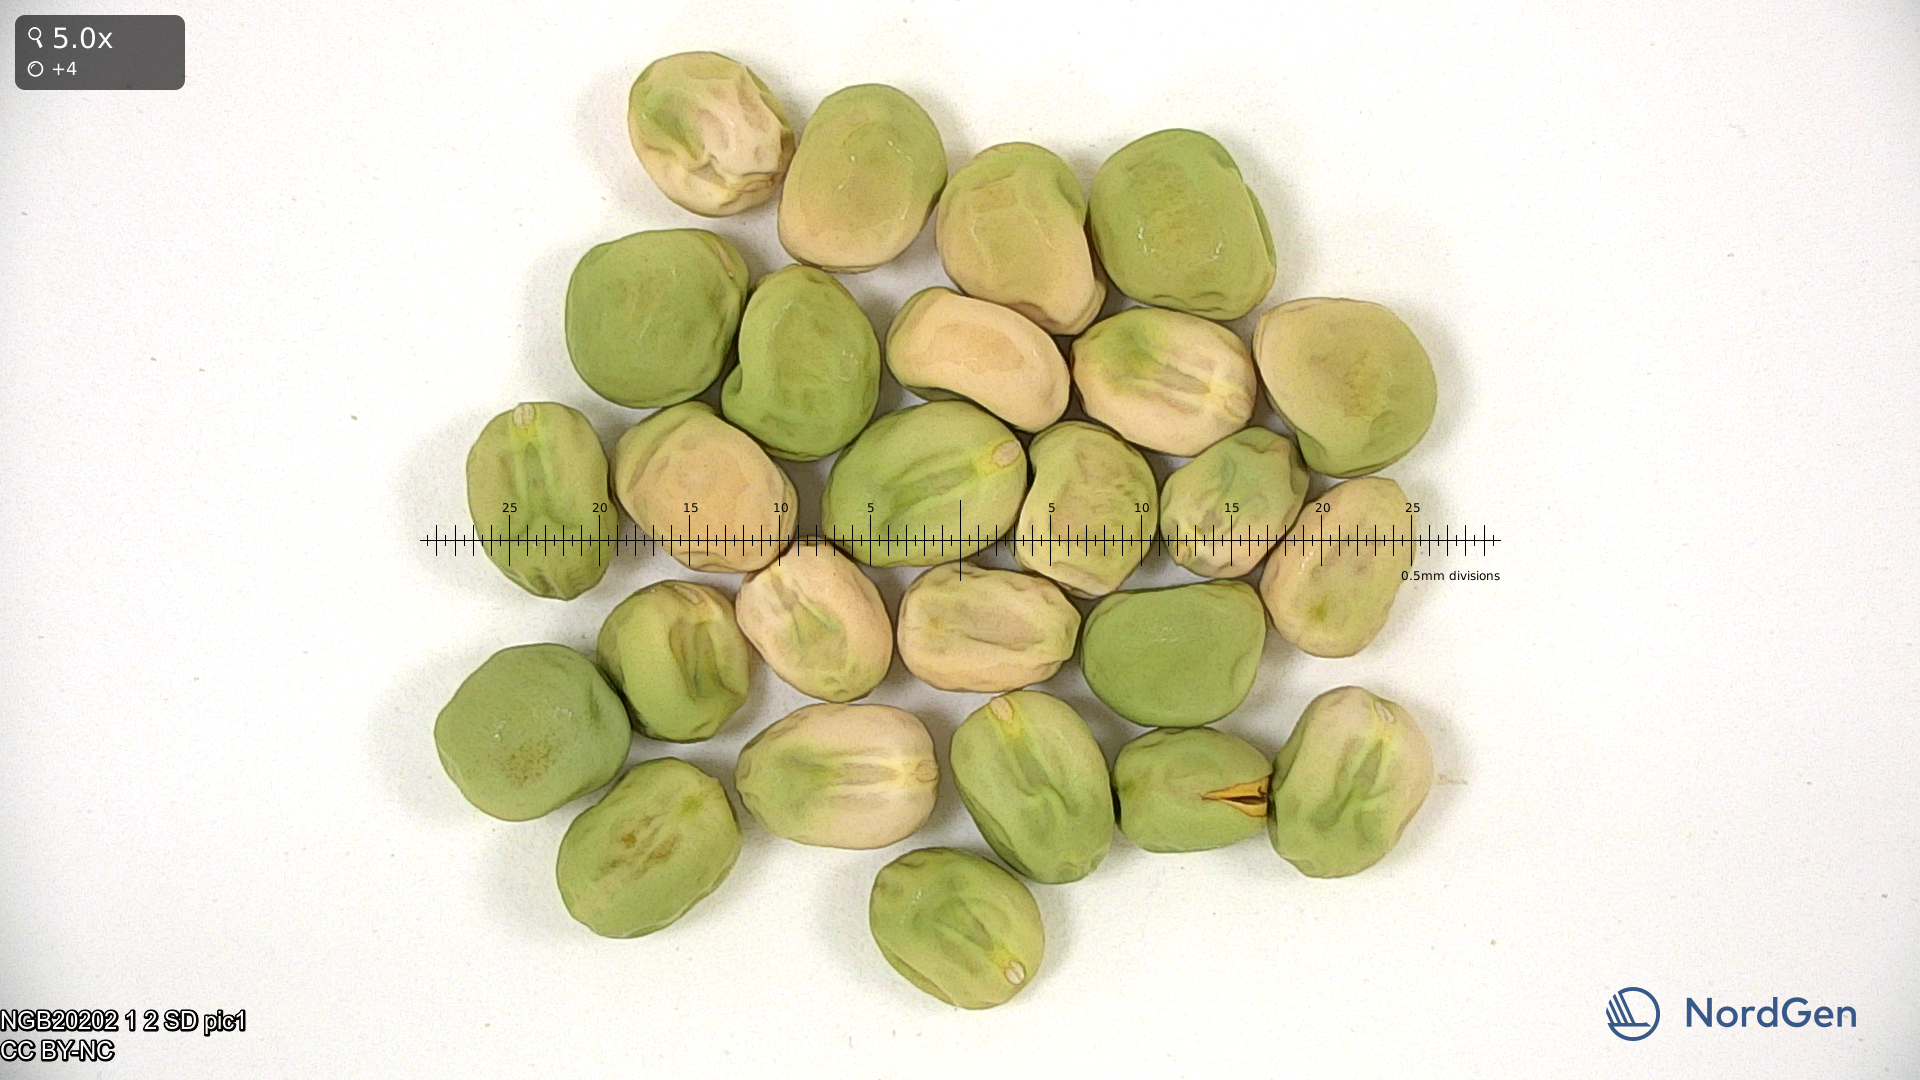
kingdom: Plantae
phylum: Tracheophyta
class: Magnoliopsida
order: Fabales
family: Fabaceae
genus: Lathyrus
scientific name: Lathyrus oleraceus
